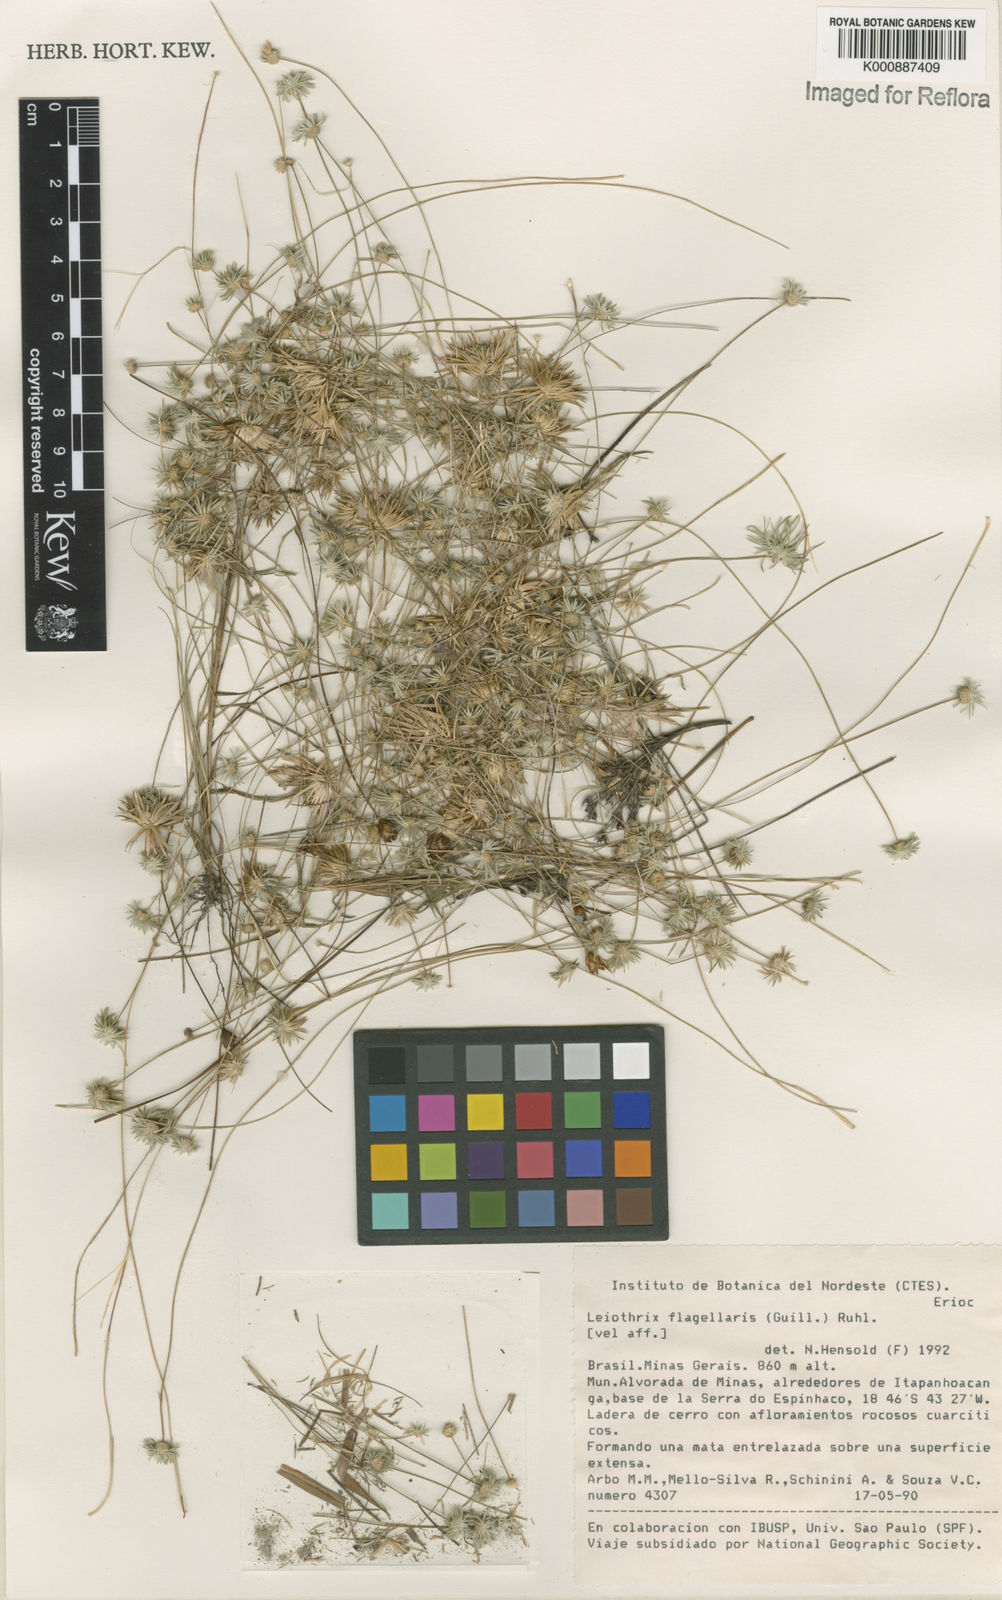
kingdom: Plantae
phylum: Tracheophyta
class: Liliopsida
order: Poales
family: Eriocaulaceae
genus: Leiothrix
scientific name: Leiothrix flagellaris
